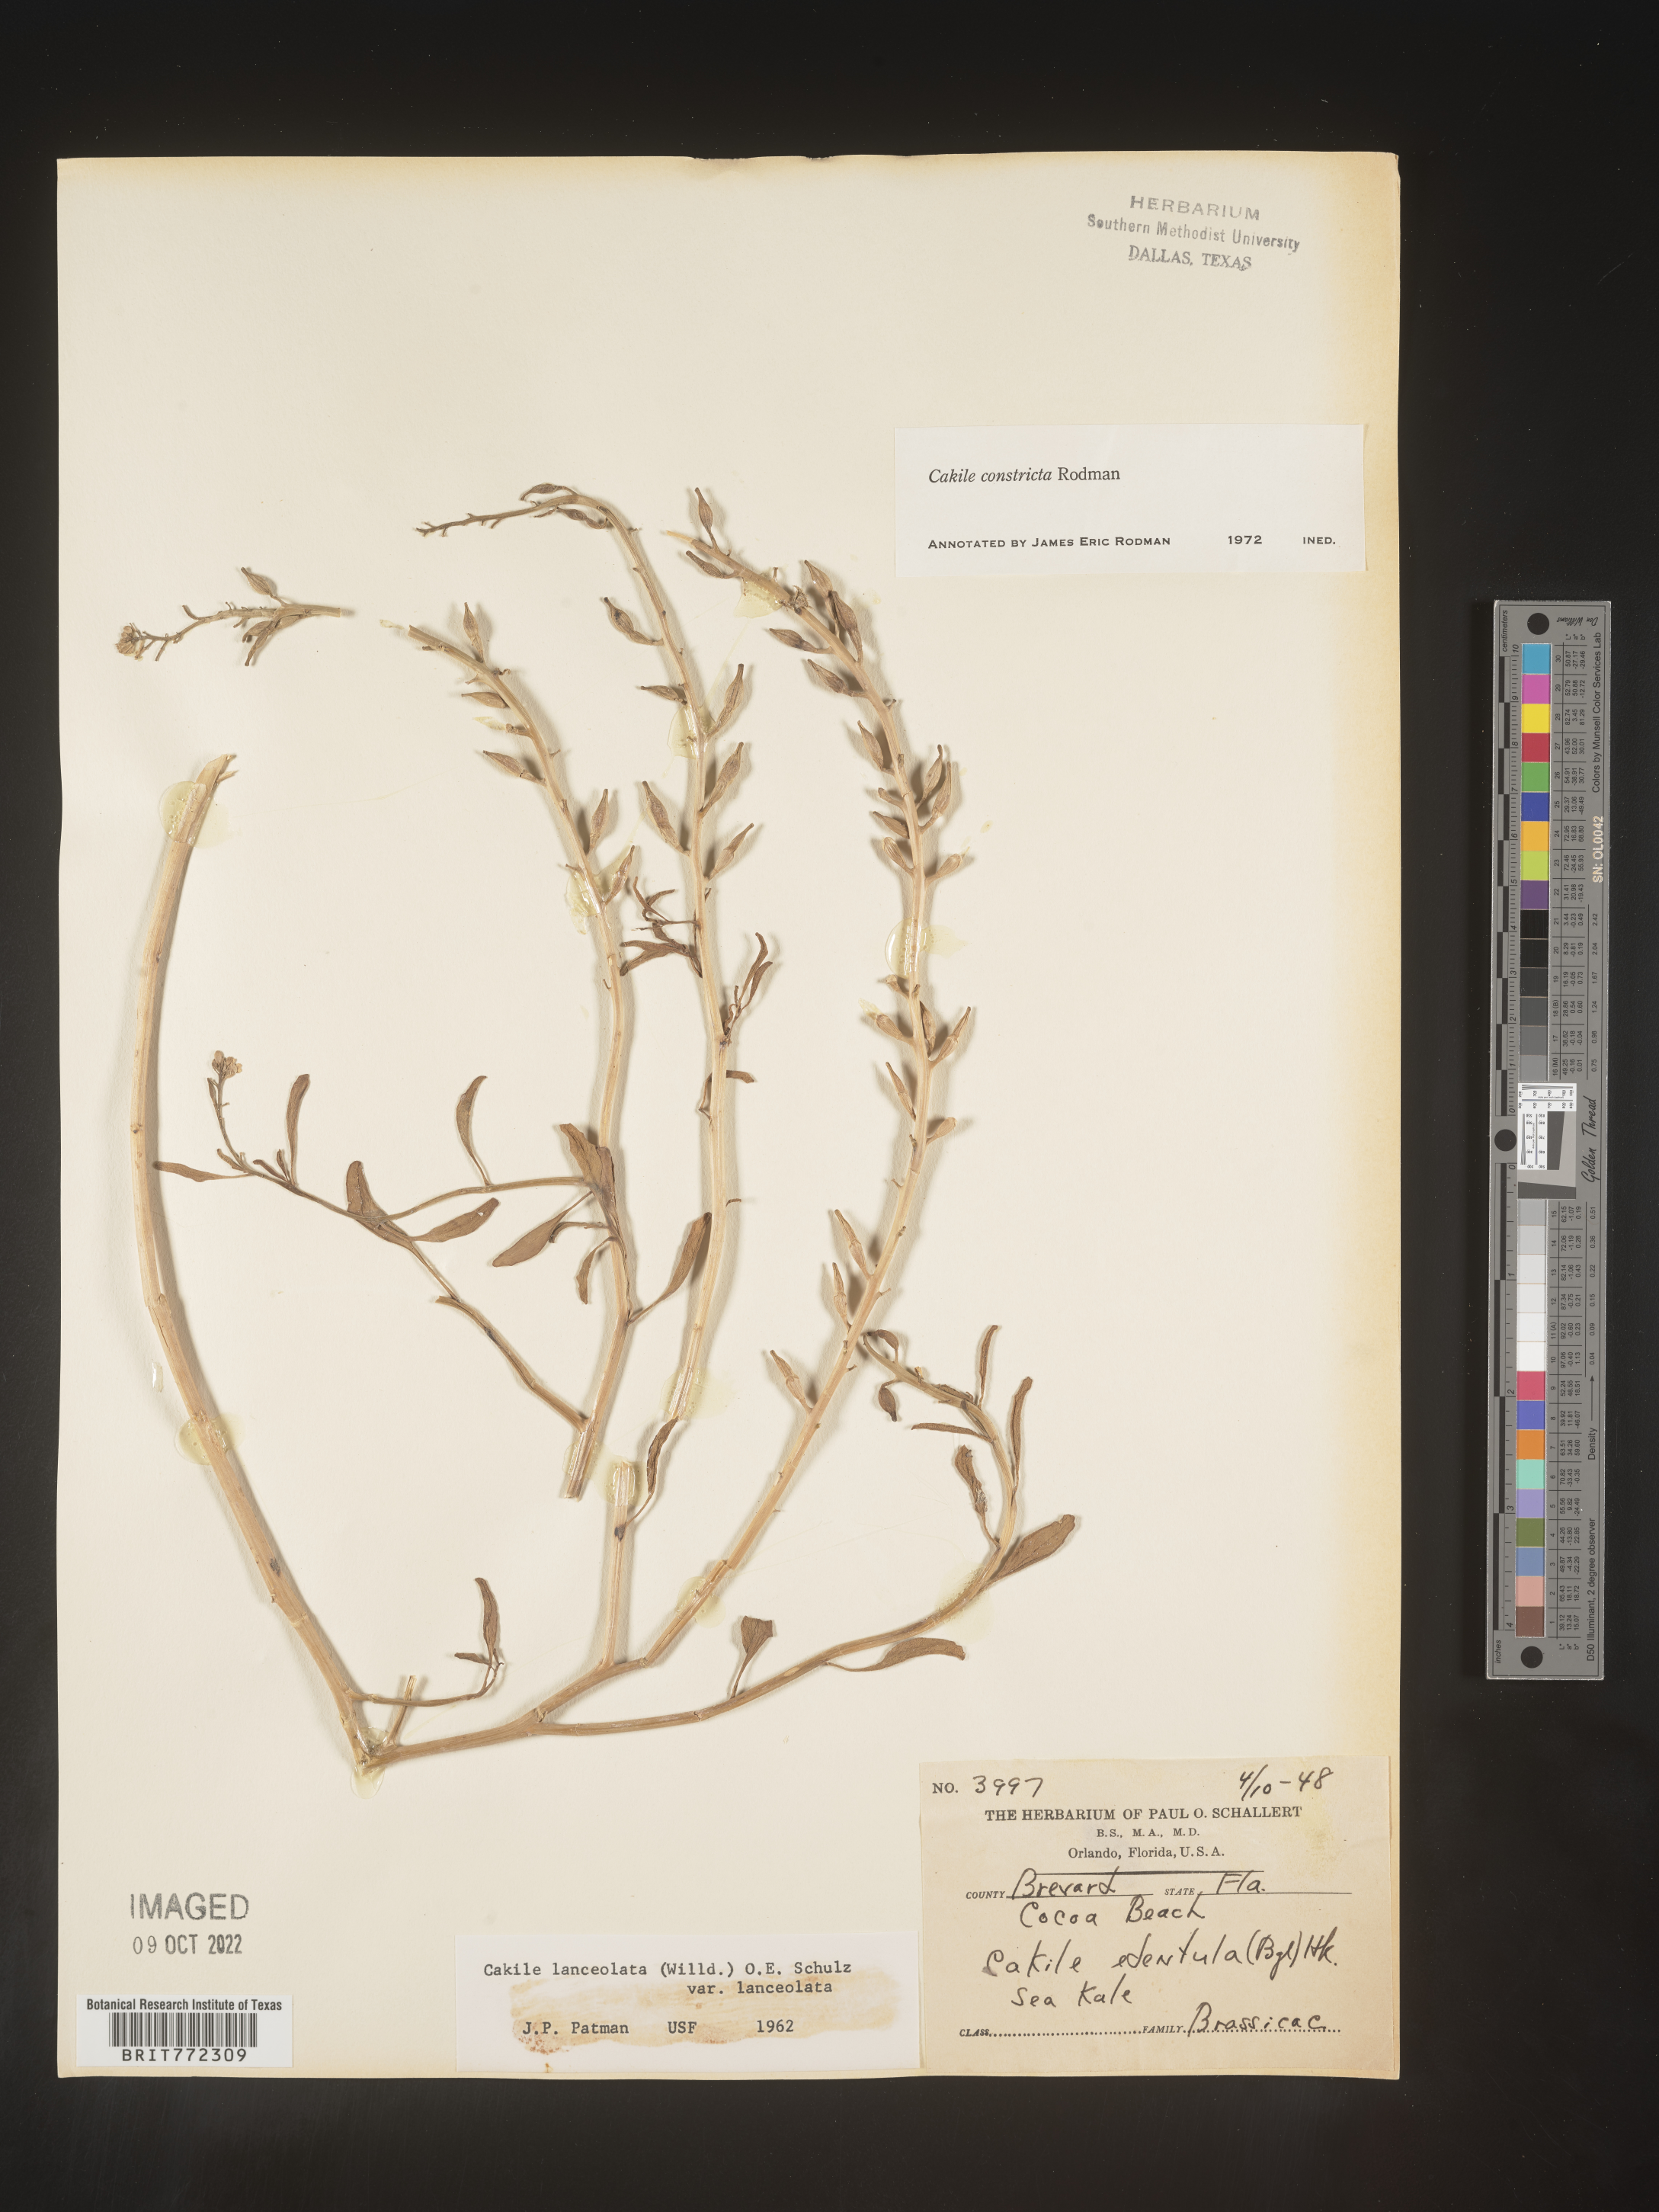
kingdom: Plantae
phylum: Tracheophyta
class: Magnoliopsida
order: Brassicales
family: Brassicaceae
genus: Cakile
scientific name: Cakile constricta
